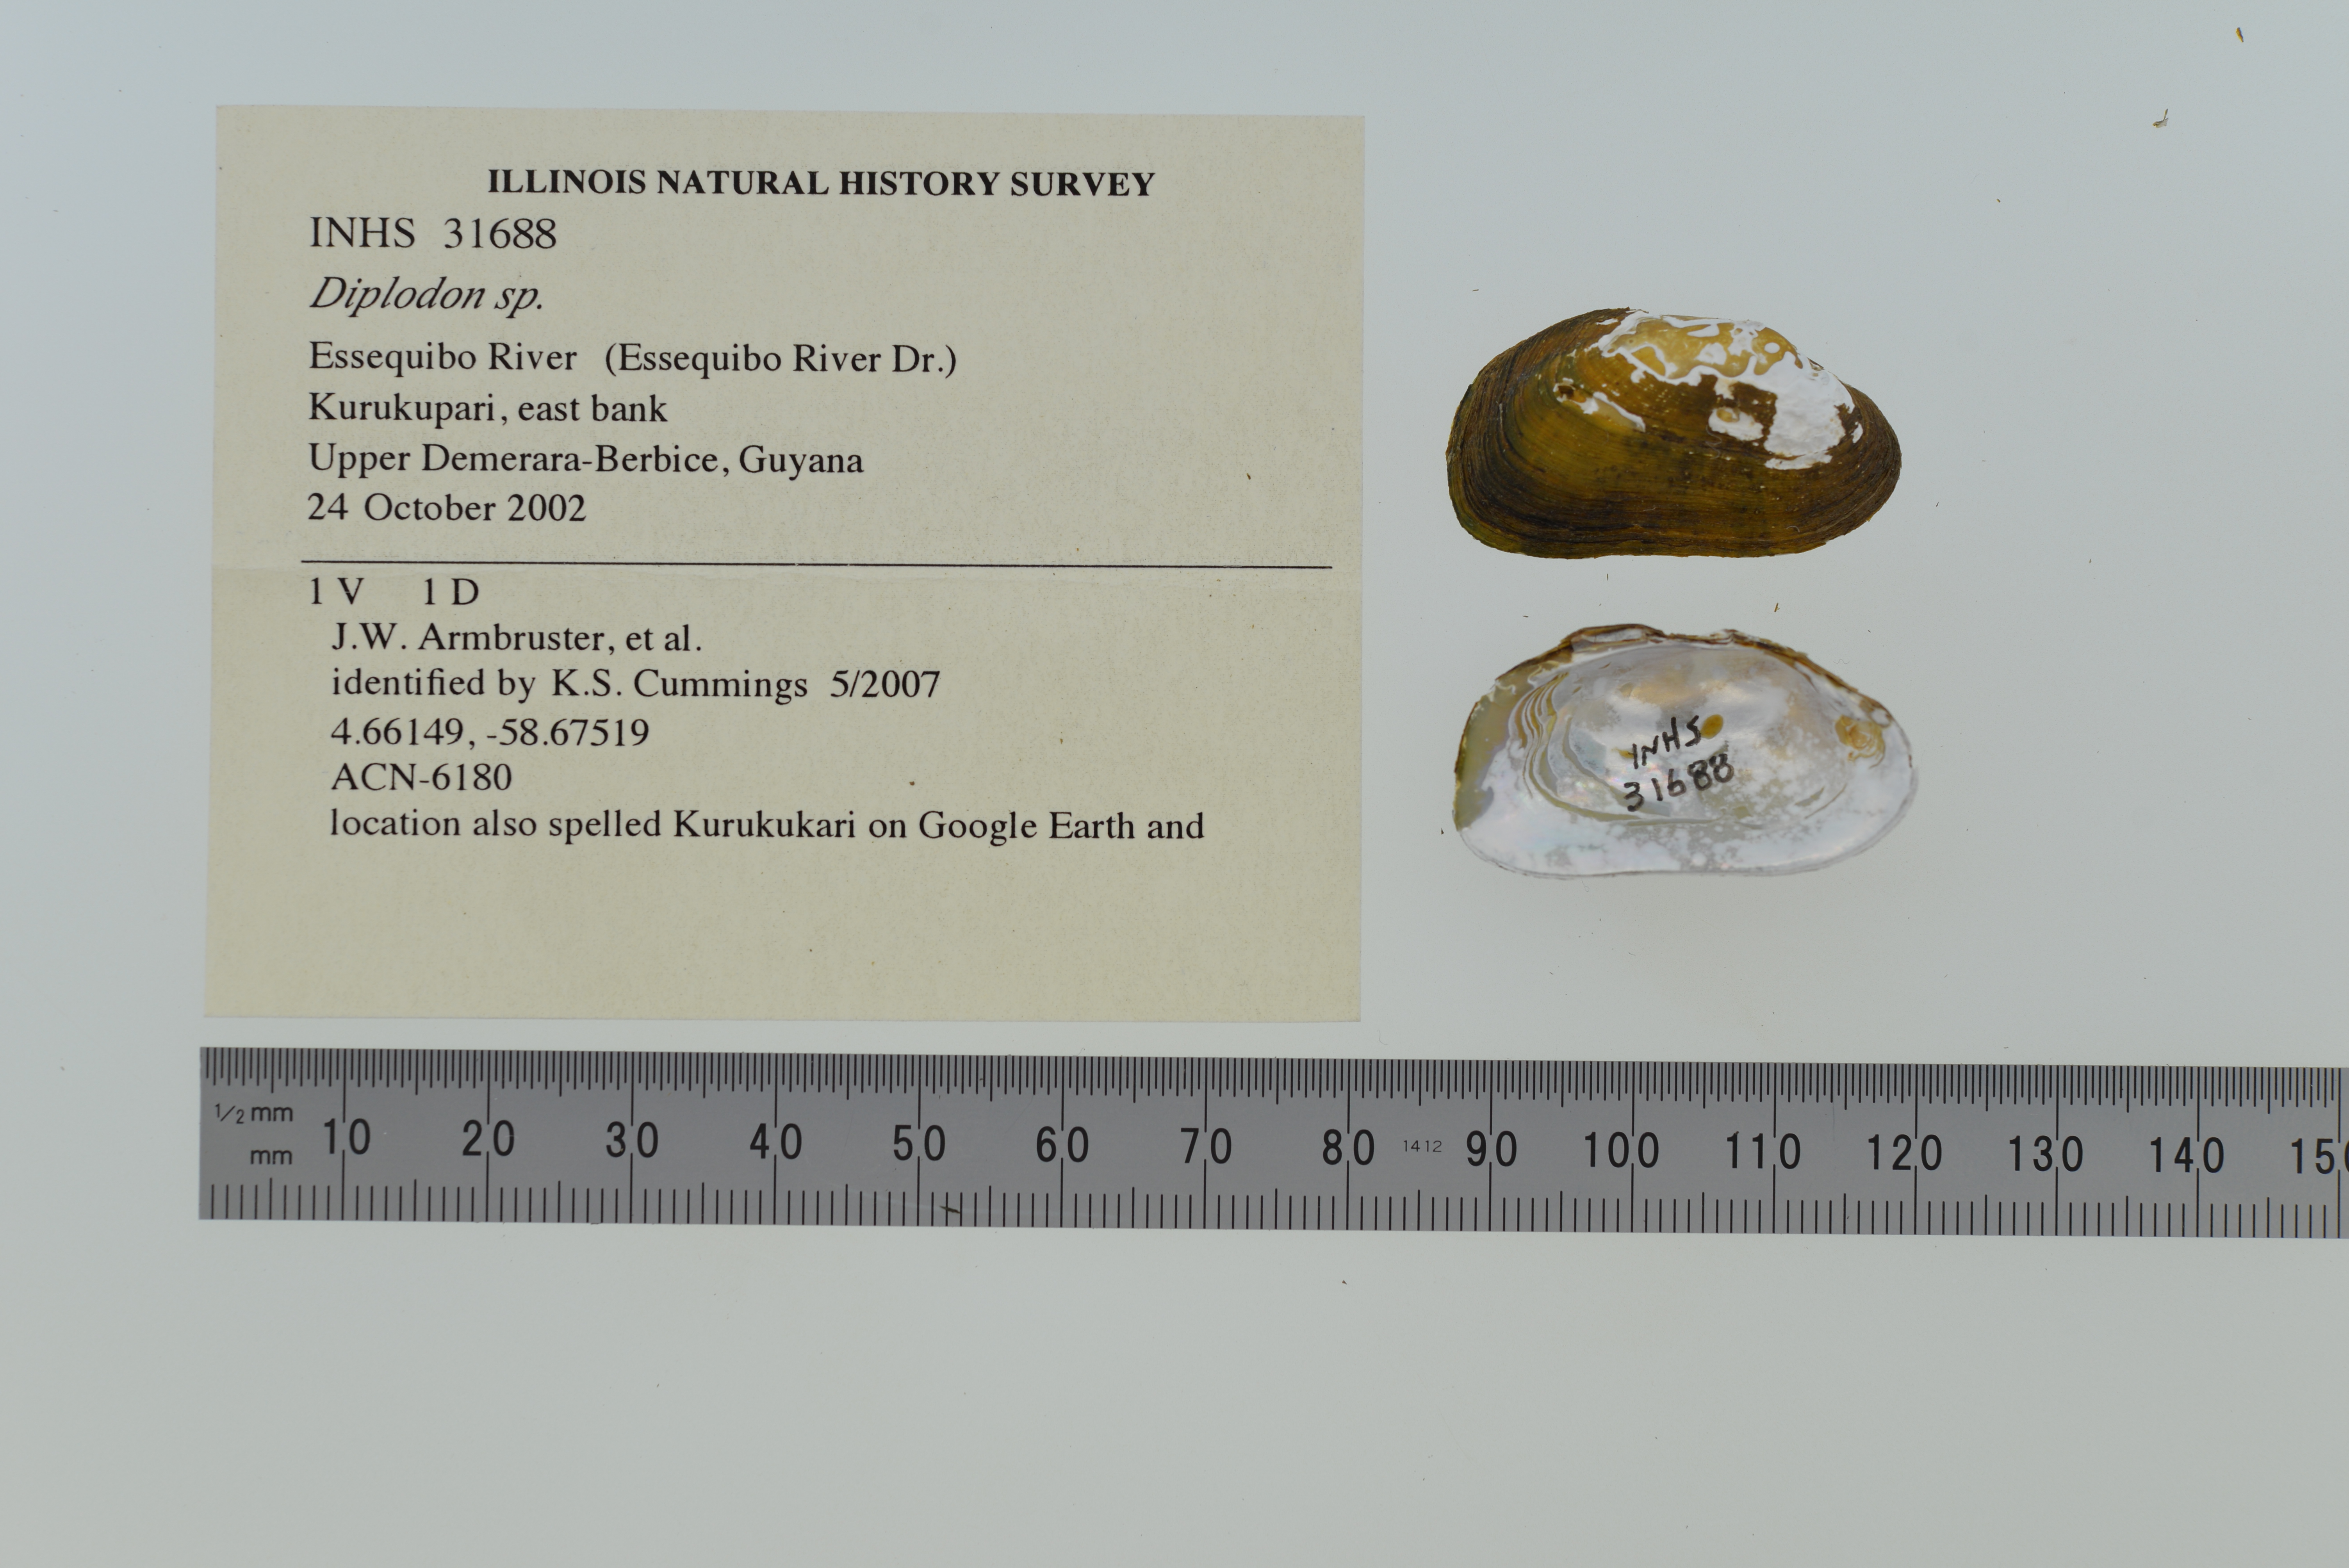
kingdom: Animalia
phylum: Mollusca
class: Bivalvia
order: Unionida
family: Hyriidae
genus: Diplodon
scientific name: Diplodon obsolescens
